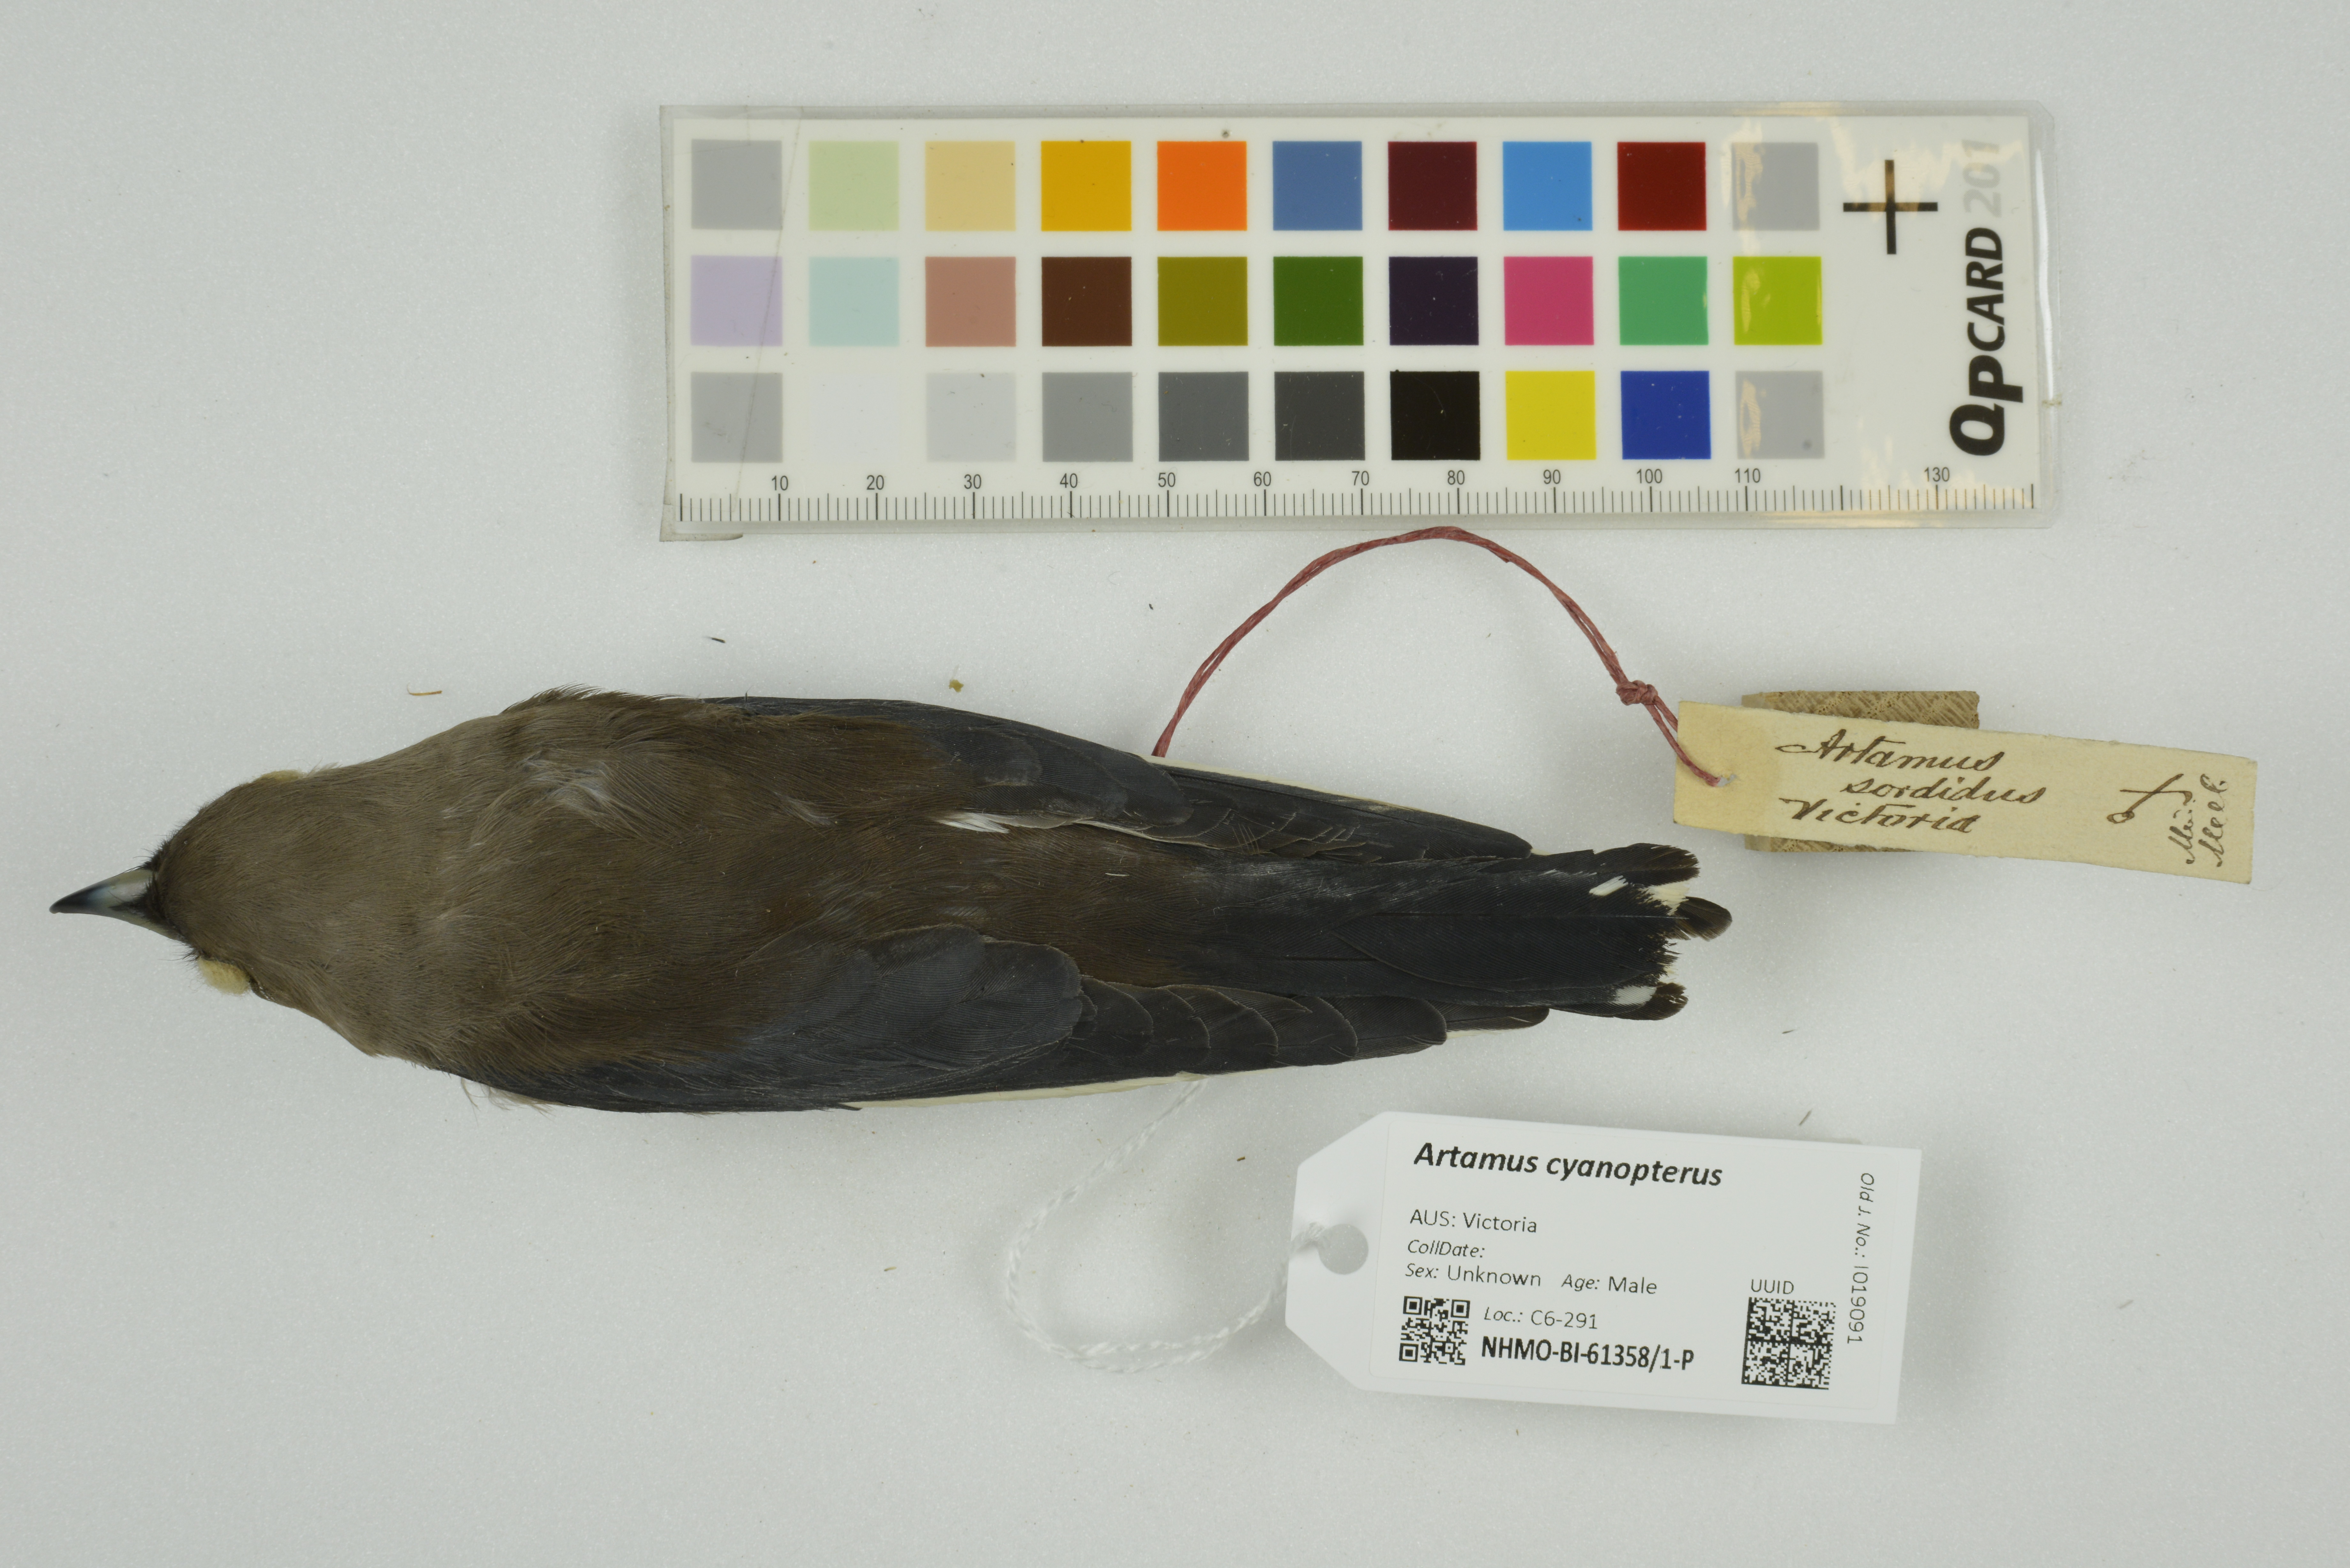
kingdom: Animalia
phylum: Chordata
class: Aves
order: Passeriformes
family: Artamidae
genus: Artamus
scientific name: Artamus cyanopterus
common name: Dusky woodswallow
